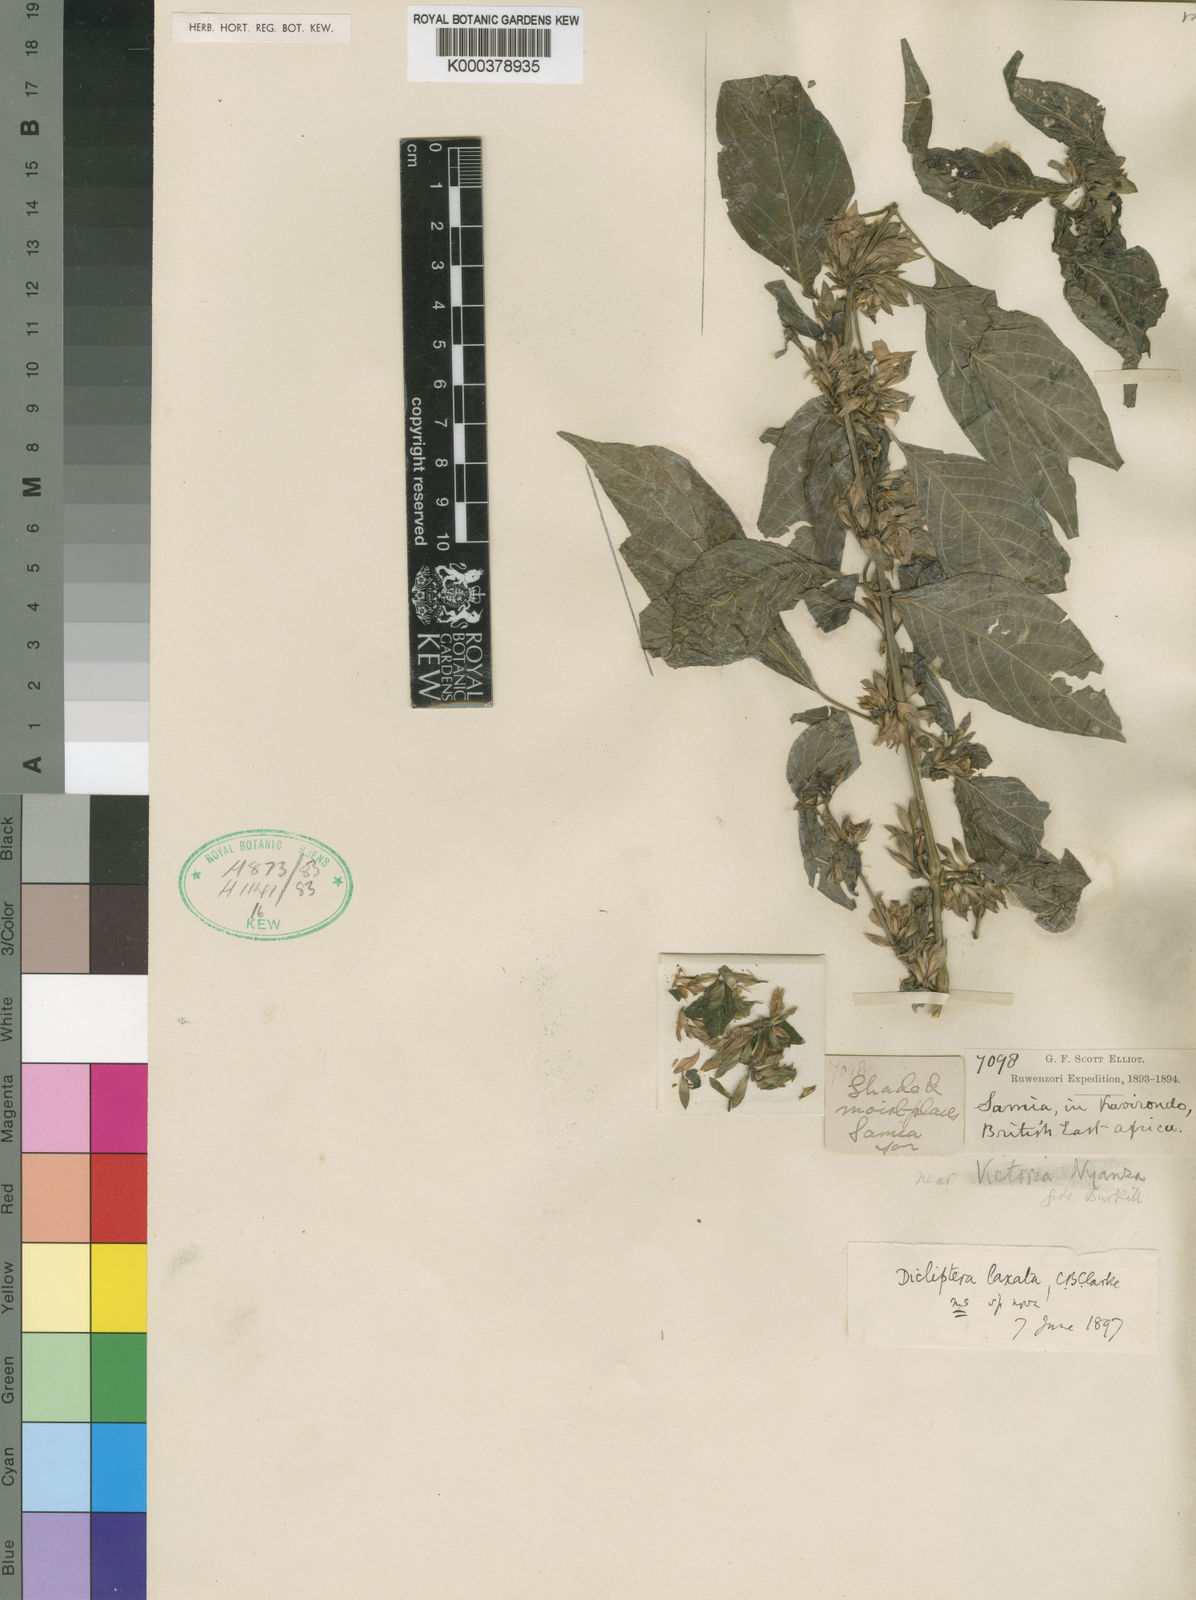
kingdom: Plantae
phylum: Tracheophyta
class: Magnoliopsida
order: Lamiales
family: Acanthaceae
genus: Dicliptera
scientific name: Dicliptera laxata
